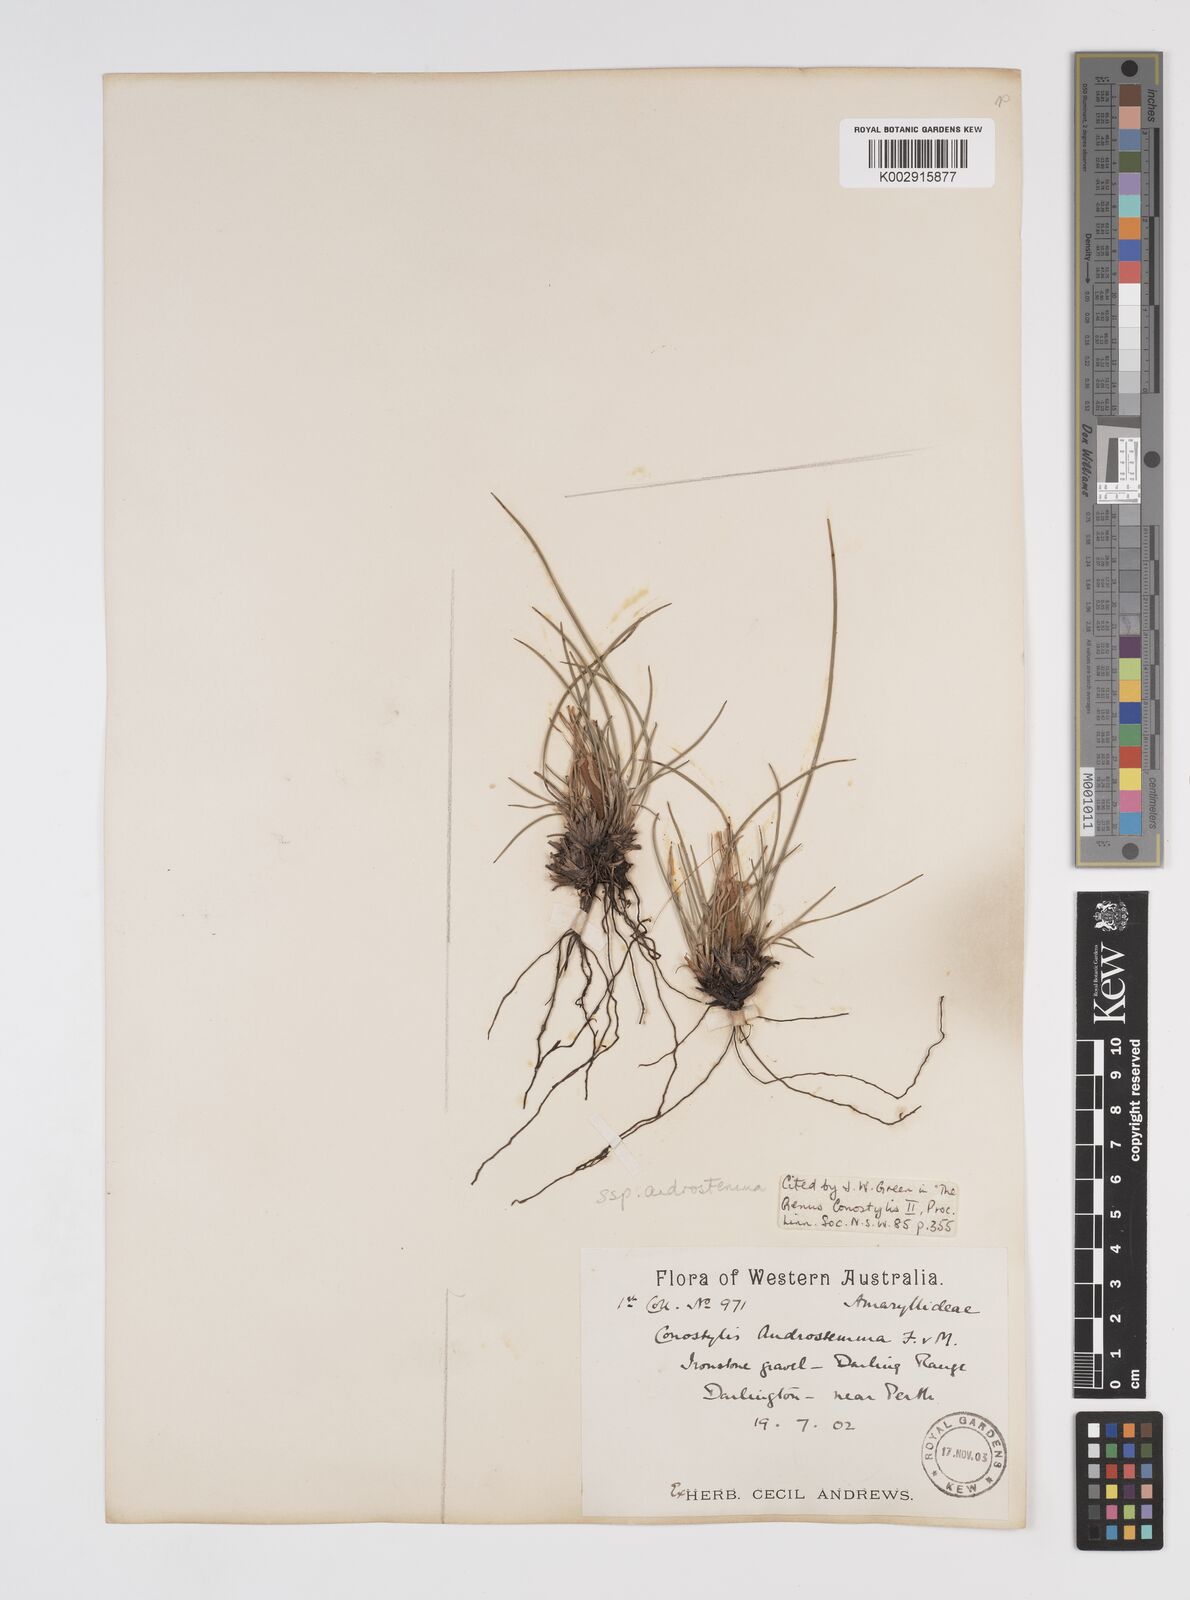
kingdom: Plantae
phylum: Tracheophyta
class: Liliopsida
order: Commelinales
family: Haemodoraceae
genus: Conostylis
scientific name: Conostylis androstemma
